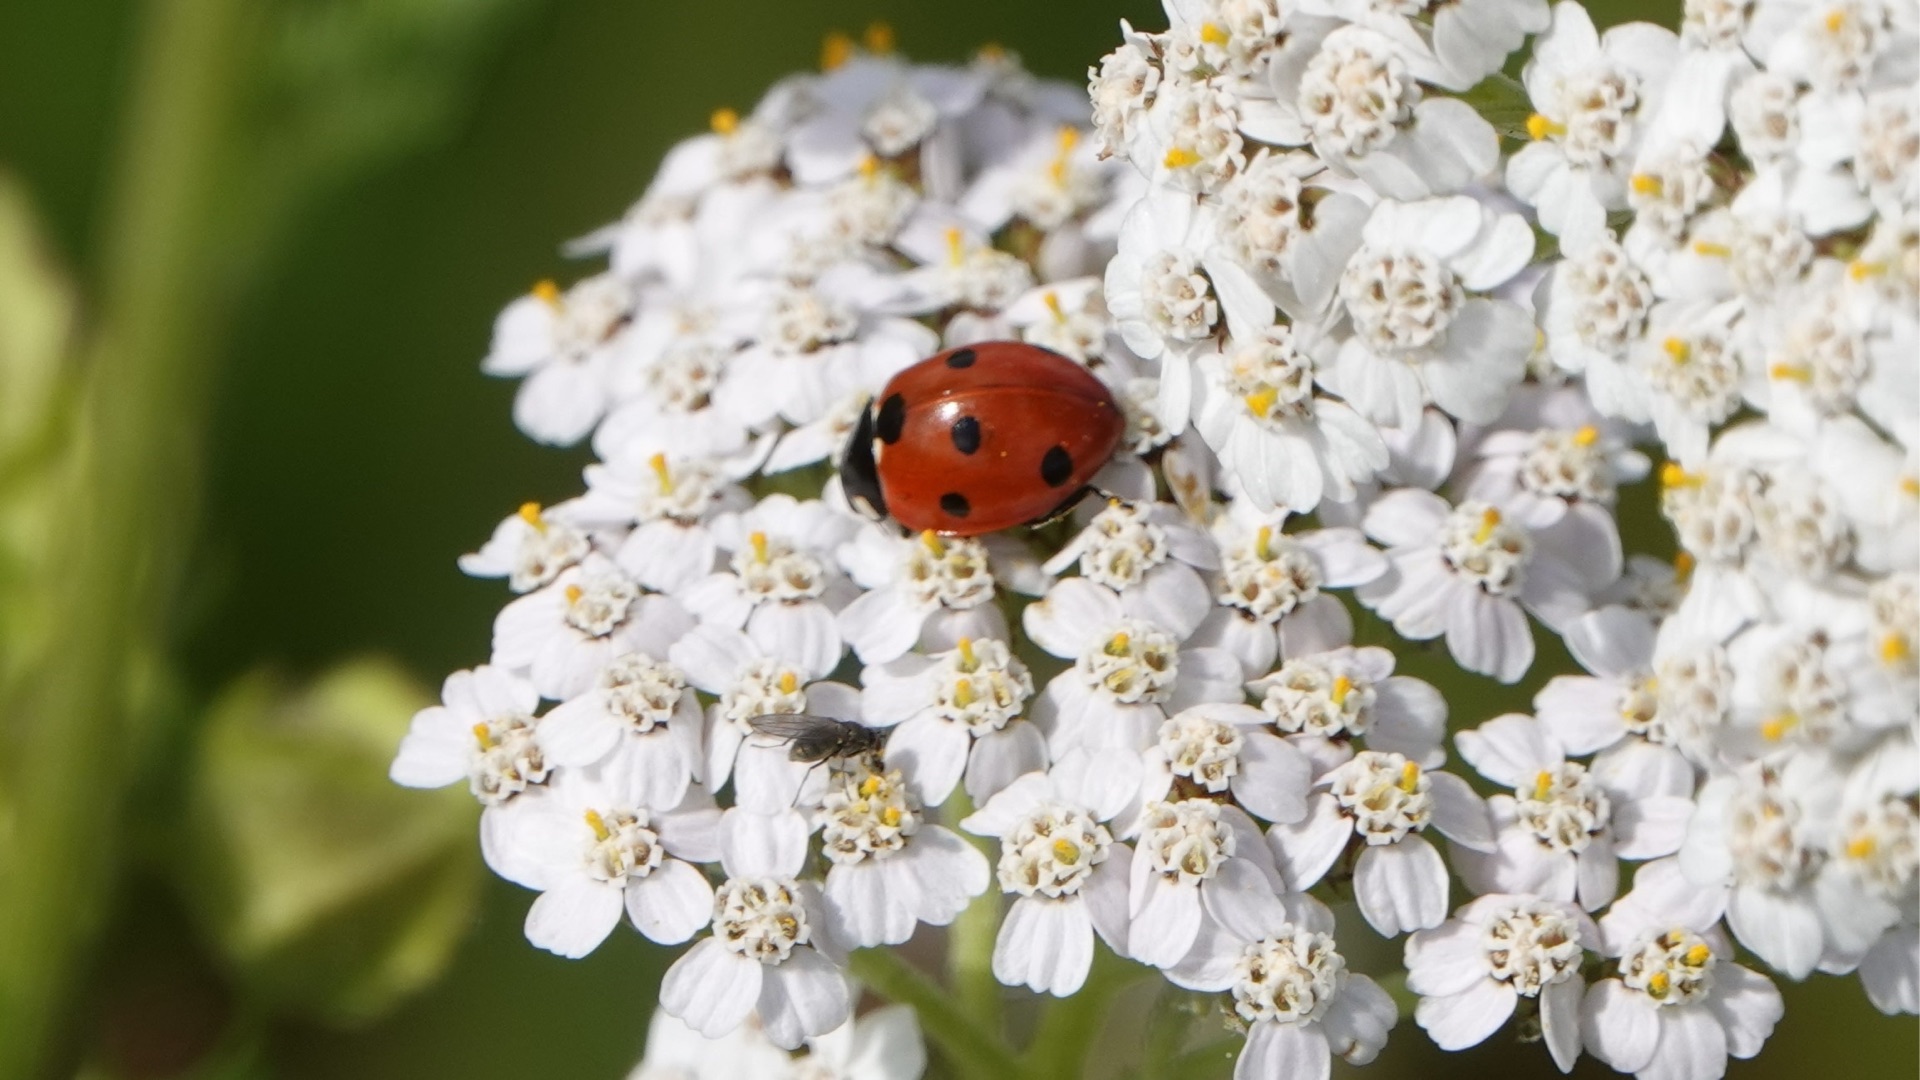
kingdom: Animalia
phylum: Arthropoda
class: Insecta
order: Coleoptera
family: Coccinellidae
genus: Coccinella
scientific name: Coccinella septempunctata
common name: Syvplettet mariehøne
